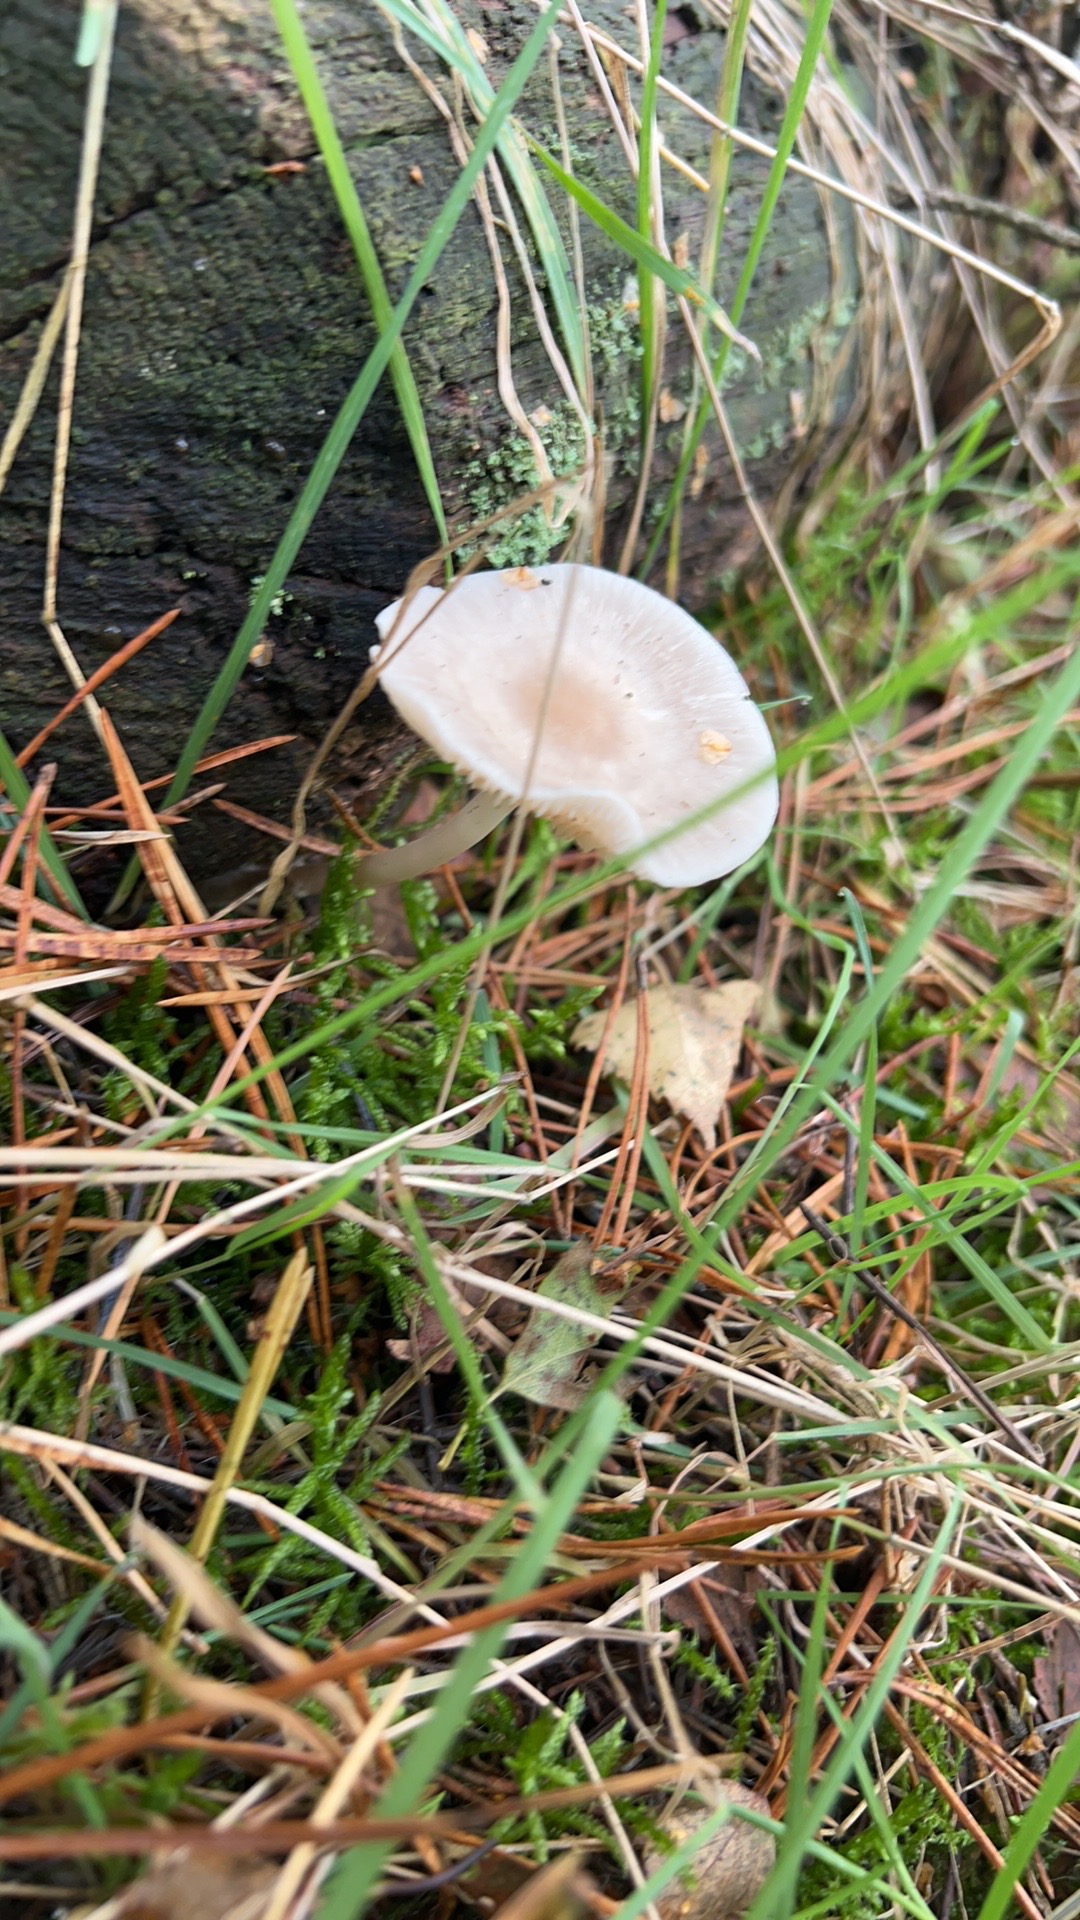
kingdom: Fungi
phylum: Basidiomycota
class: Agaricomycetes
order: Agaricales
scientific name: Agaricales
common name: champignonordenen
